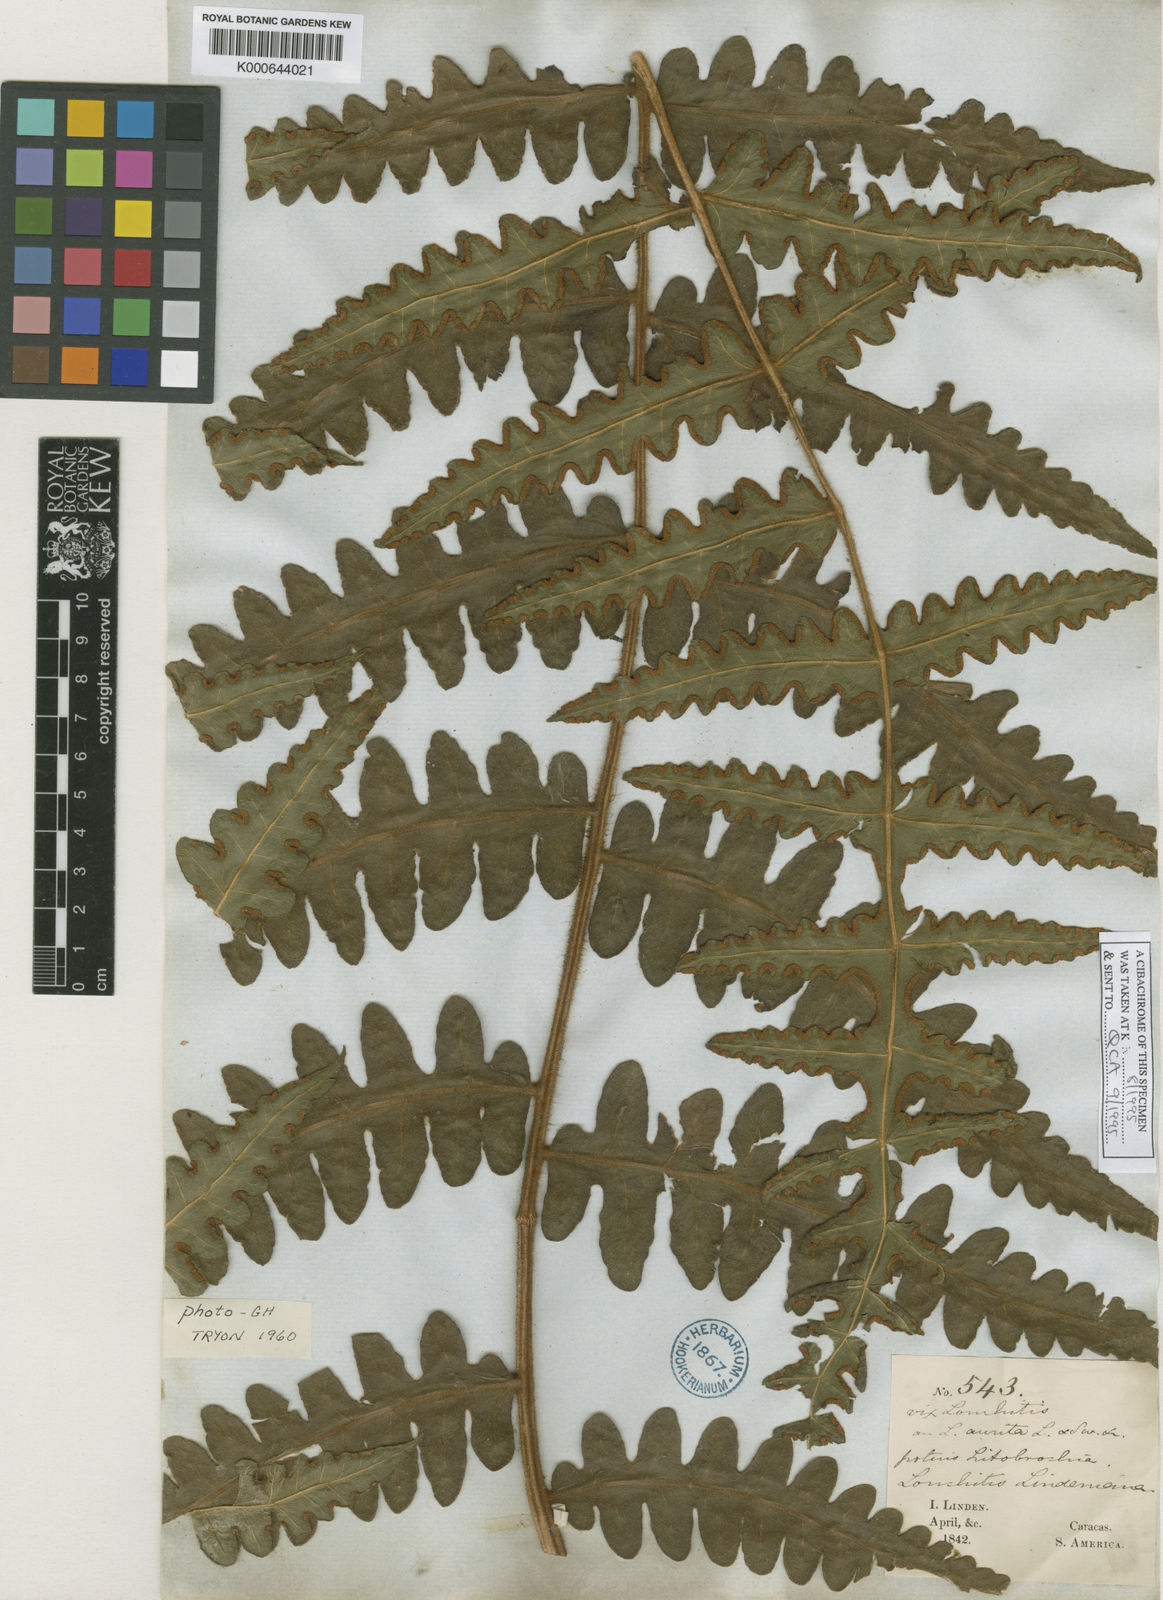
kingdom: Plantae
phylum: Tracheophyta
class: Polypodiopsida
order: Polypodiales
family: Dennstaedtiaceae
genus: Blotiella
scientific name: Blotiella aurita
